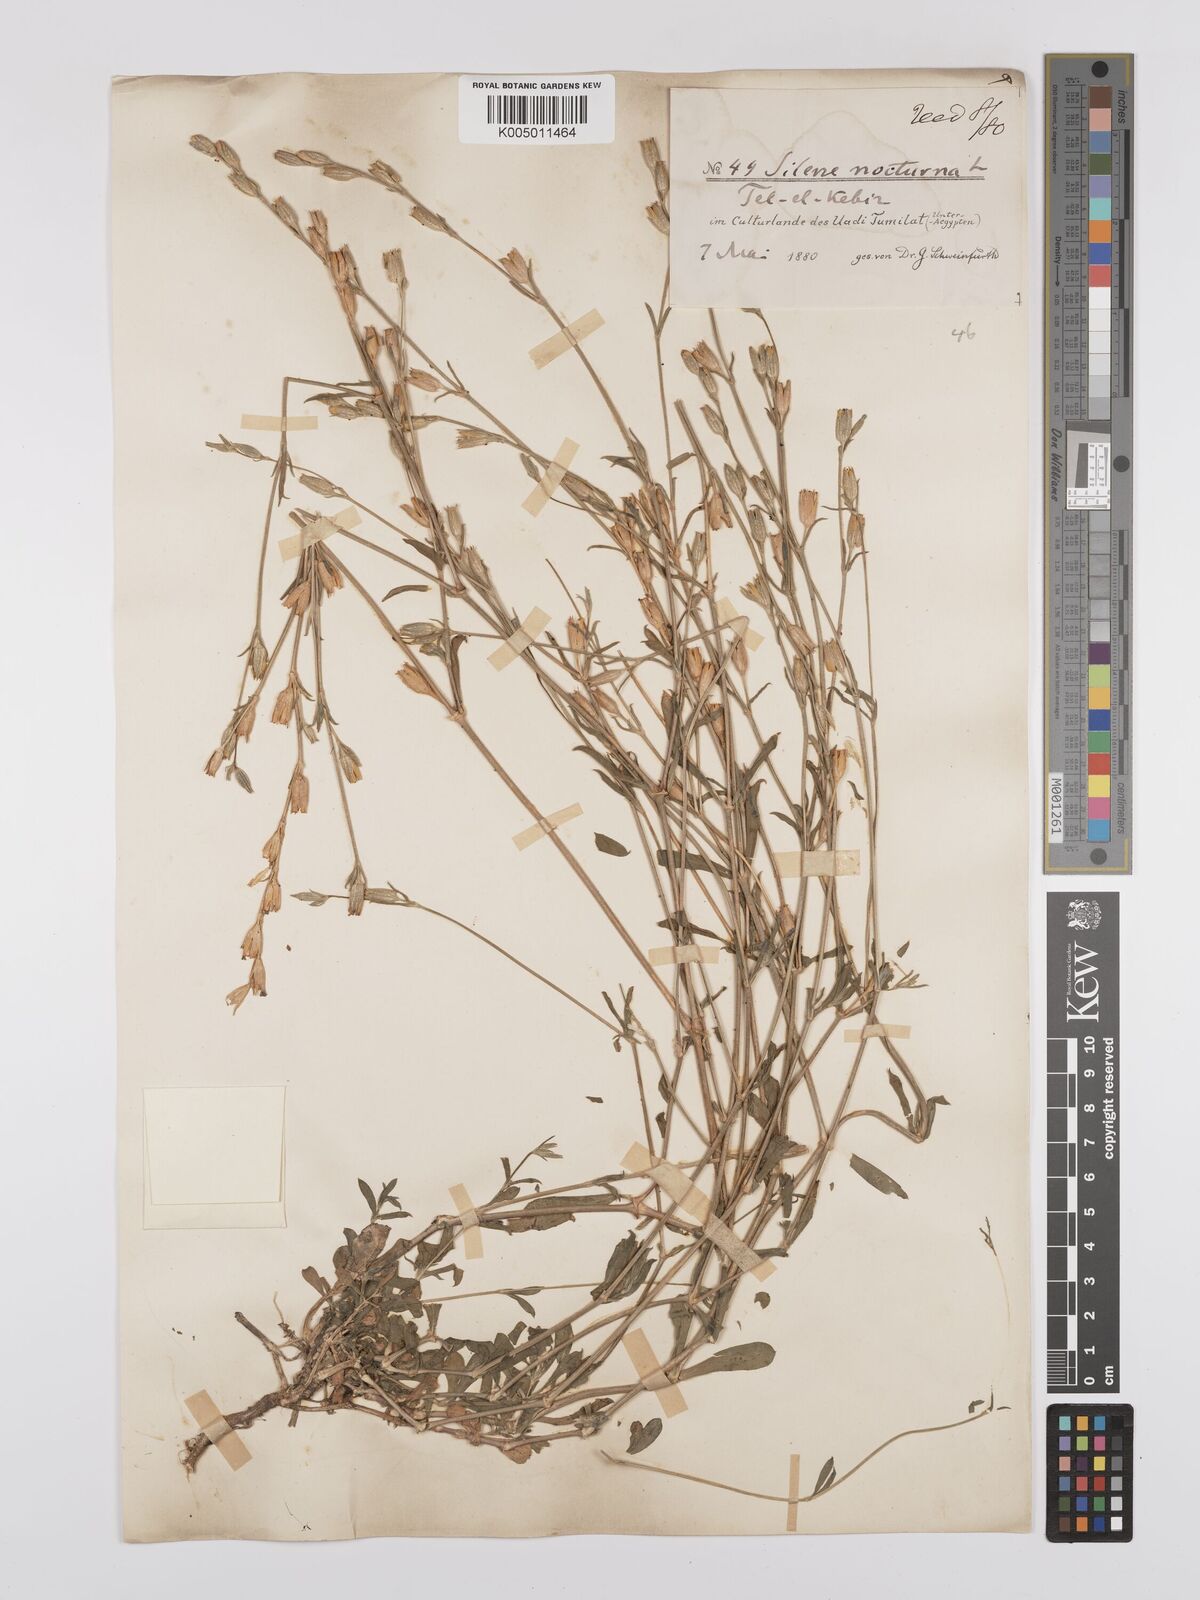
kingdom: Plantae
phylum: Tracheophyta
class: Magnoliopsida
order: Caryophyllales
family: Caryophyllaceae
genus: Silene
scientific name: Silene nocturna
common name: Mediterranean catchfly
